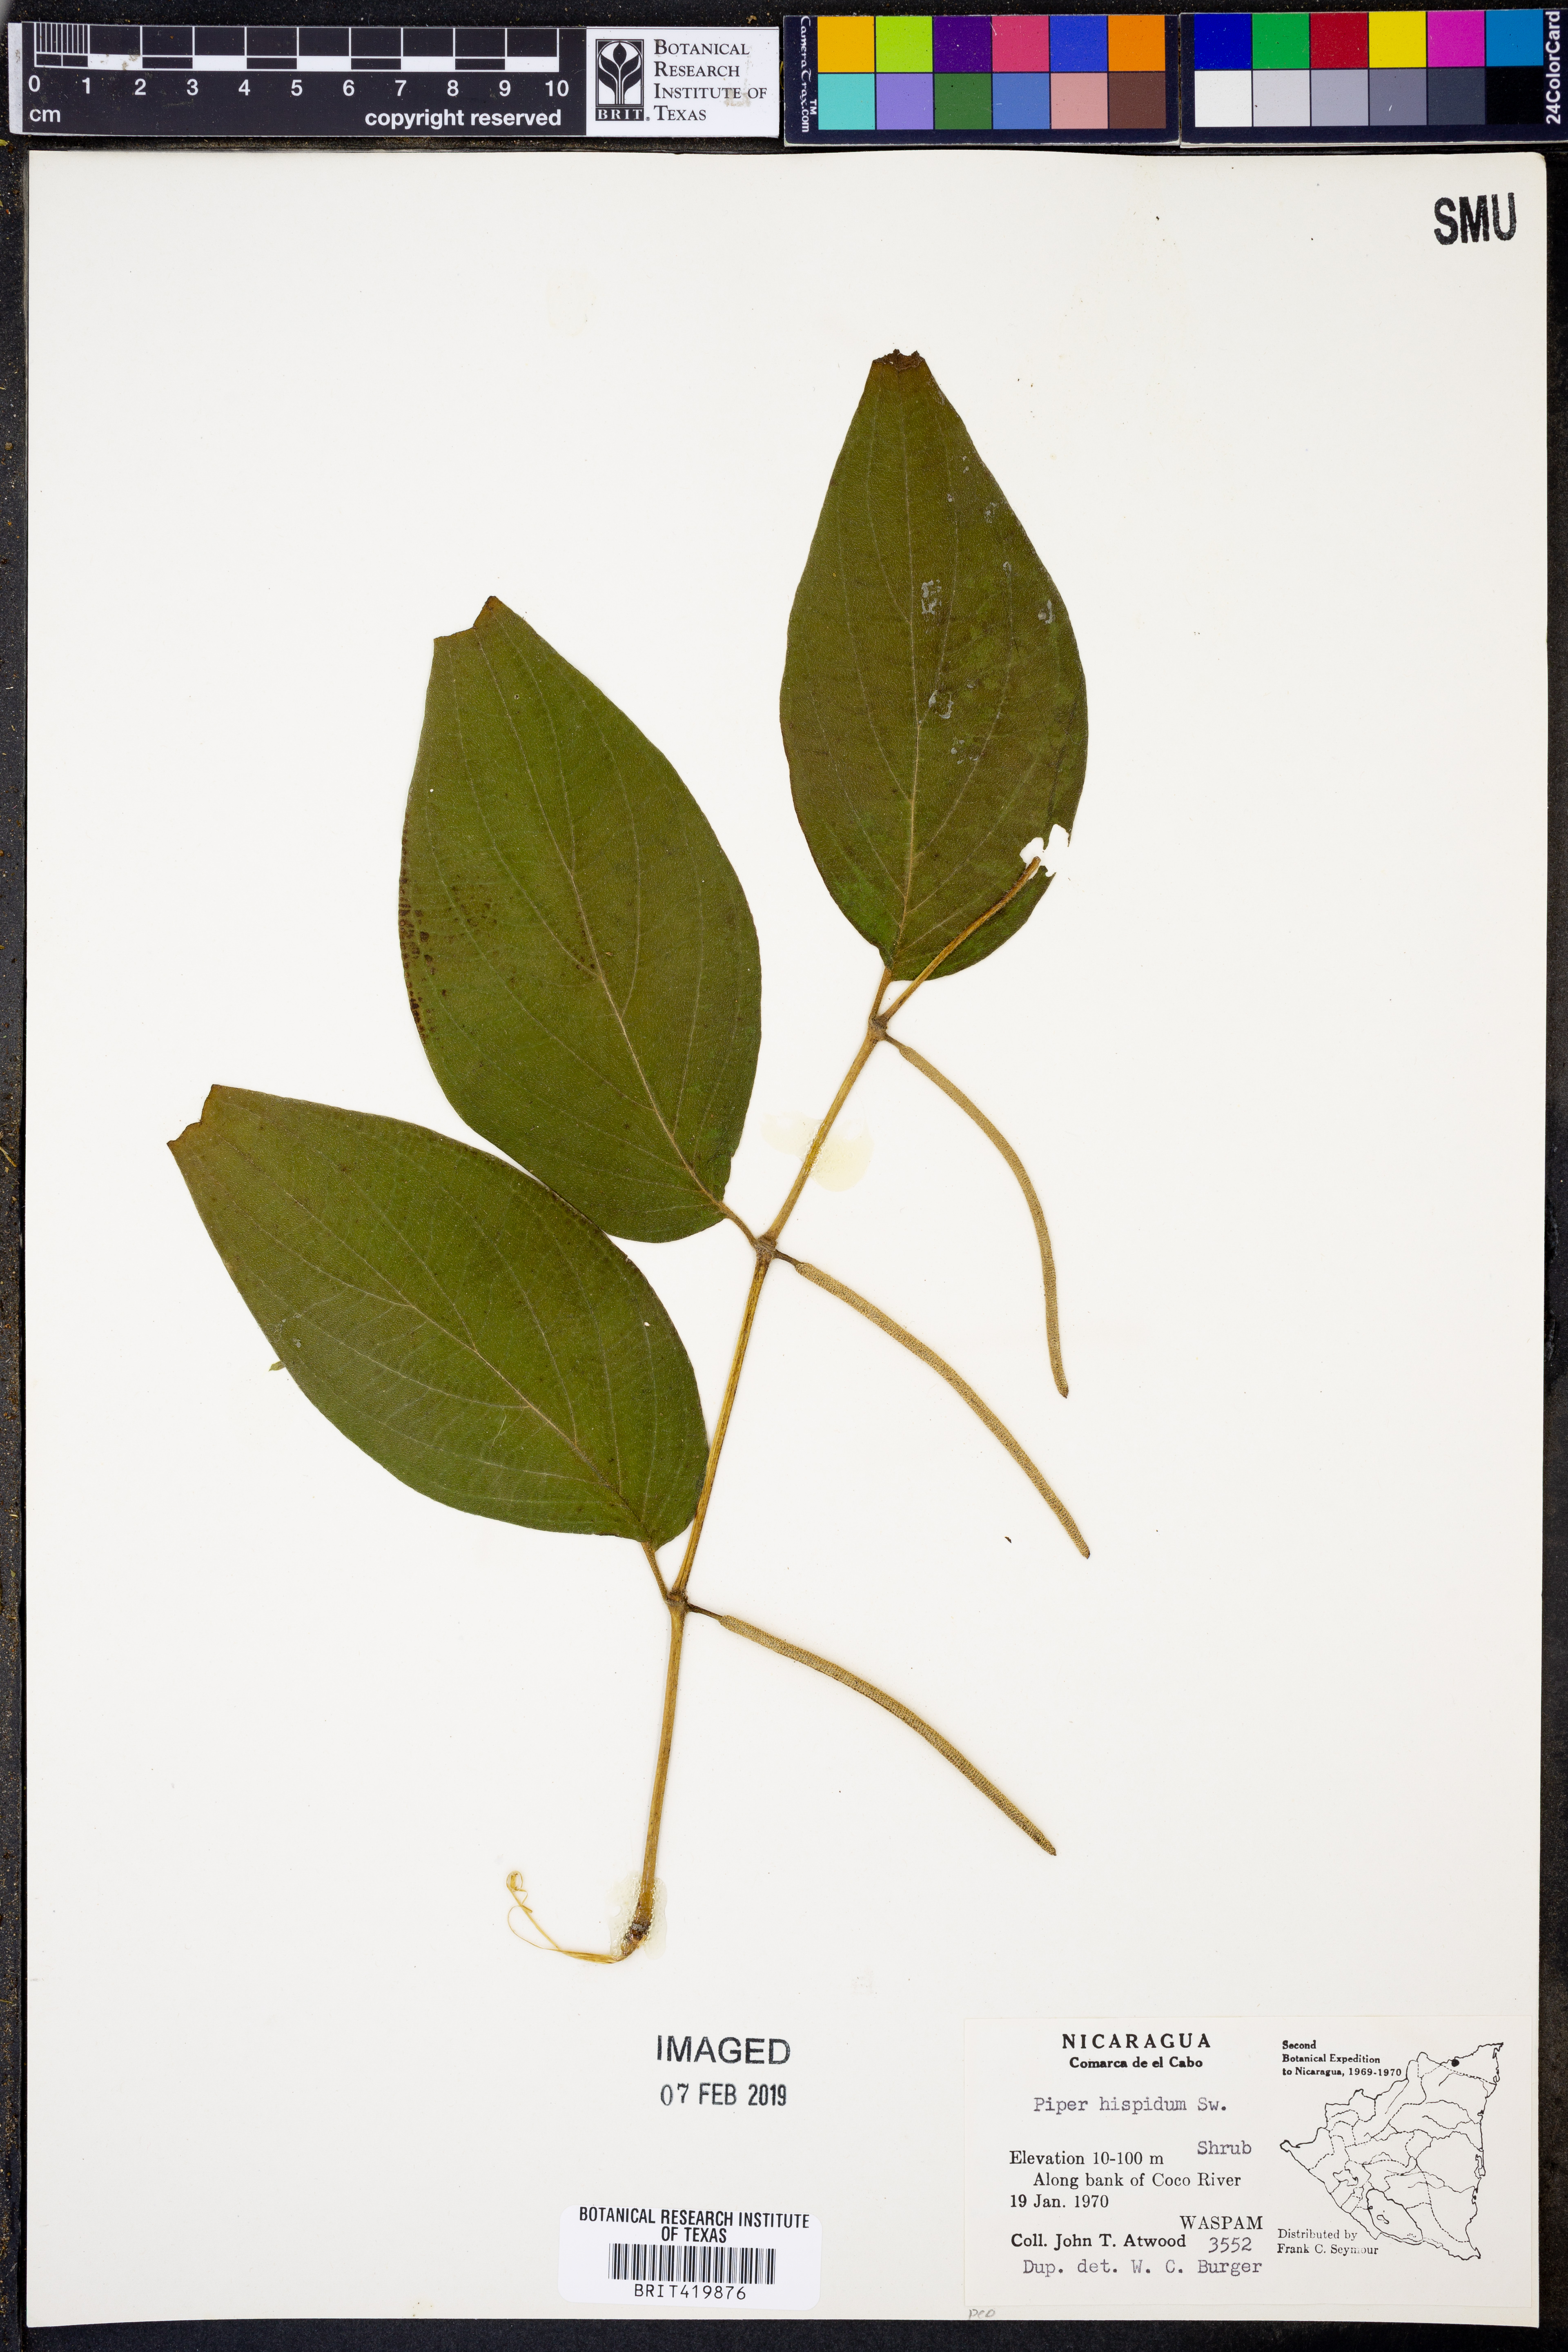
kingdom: Plantae
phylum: Tracheophyta
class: Magnoliopsida
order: Piperales
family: Piperaceae
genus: Piper
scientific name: Piper hispidum
